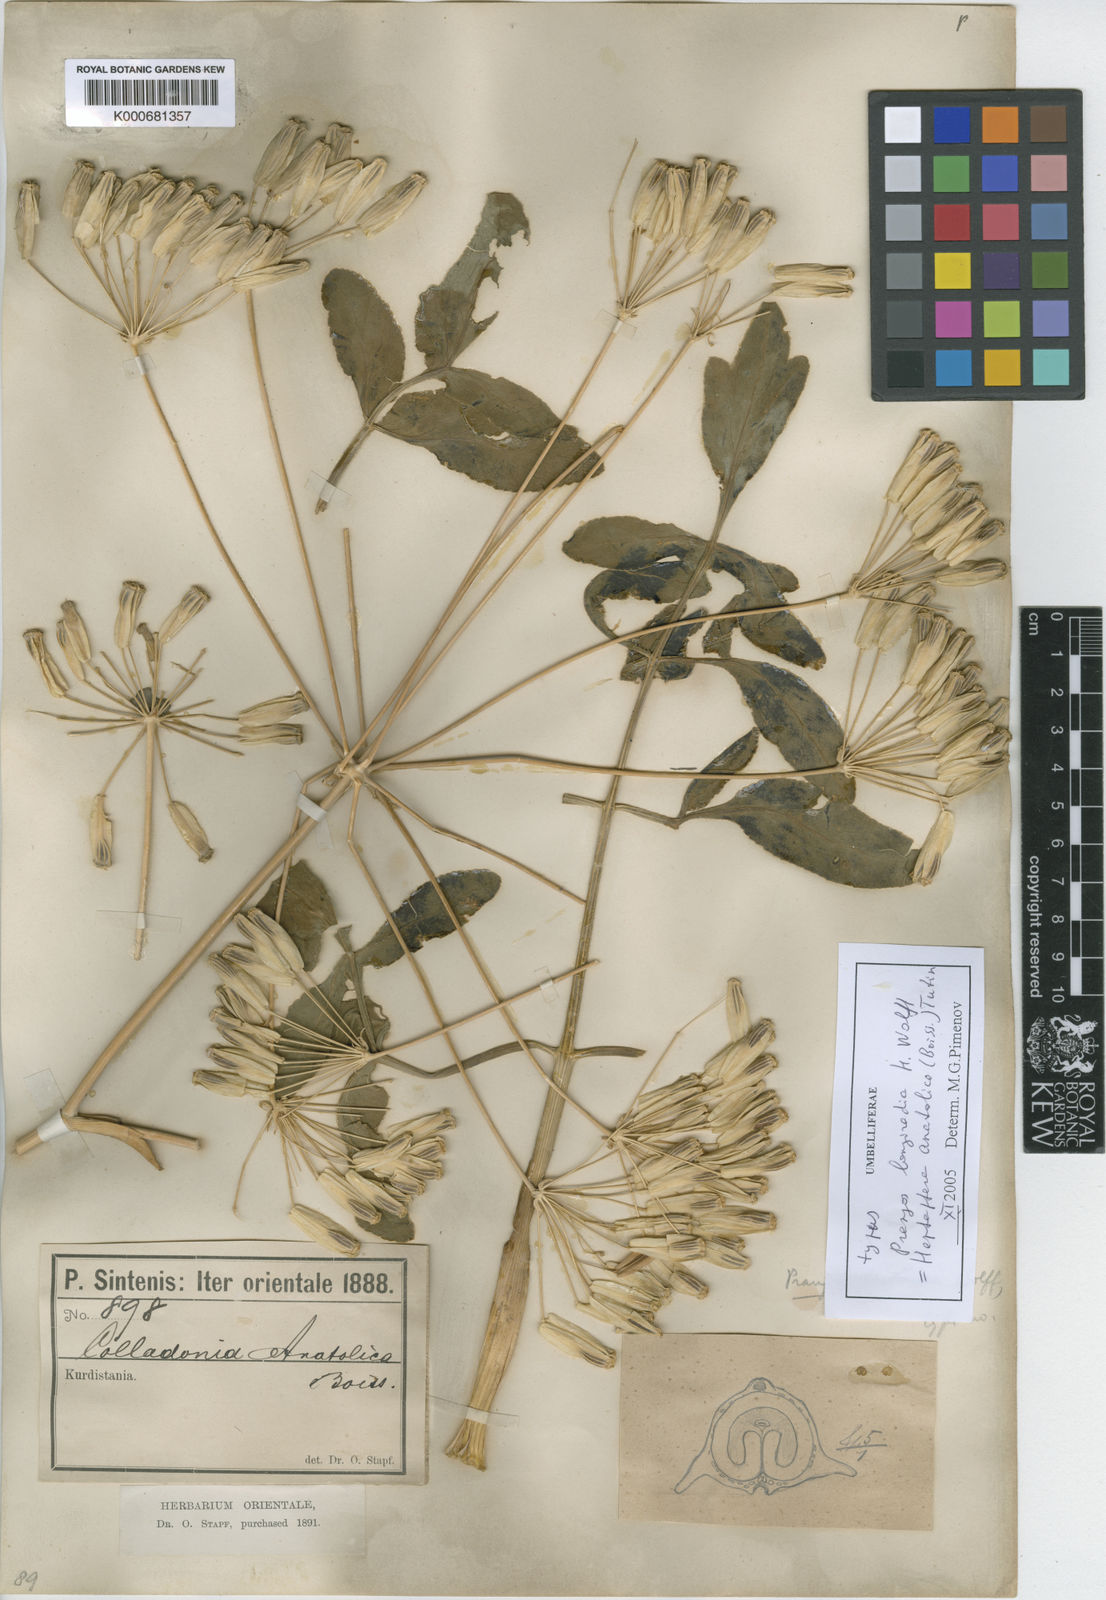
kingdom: Plantae
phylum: Tracheophyta
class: Magnoliopsida
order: Apiales
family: Apiaceae
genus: Heptaptera
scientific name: Heptaptera anatolica
